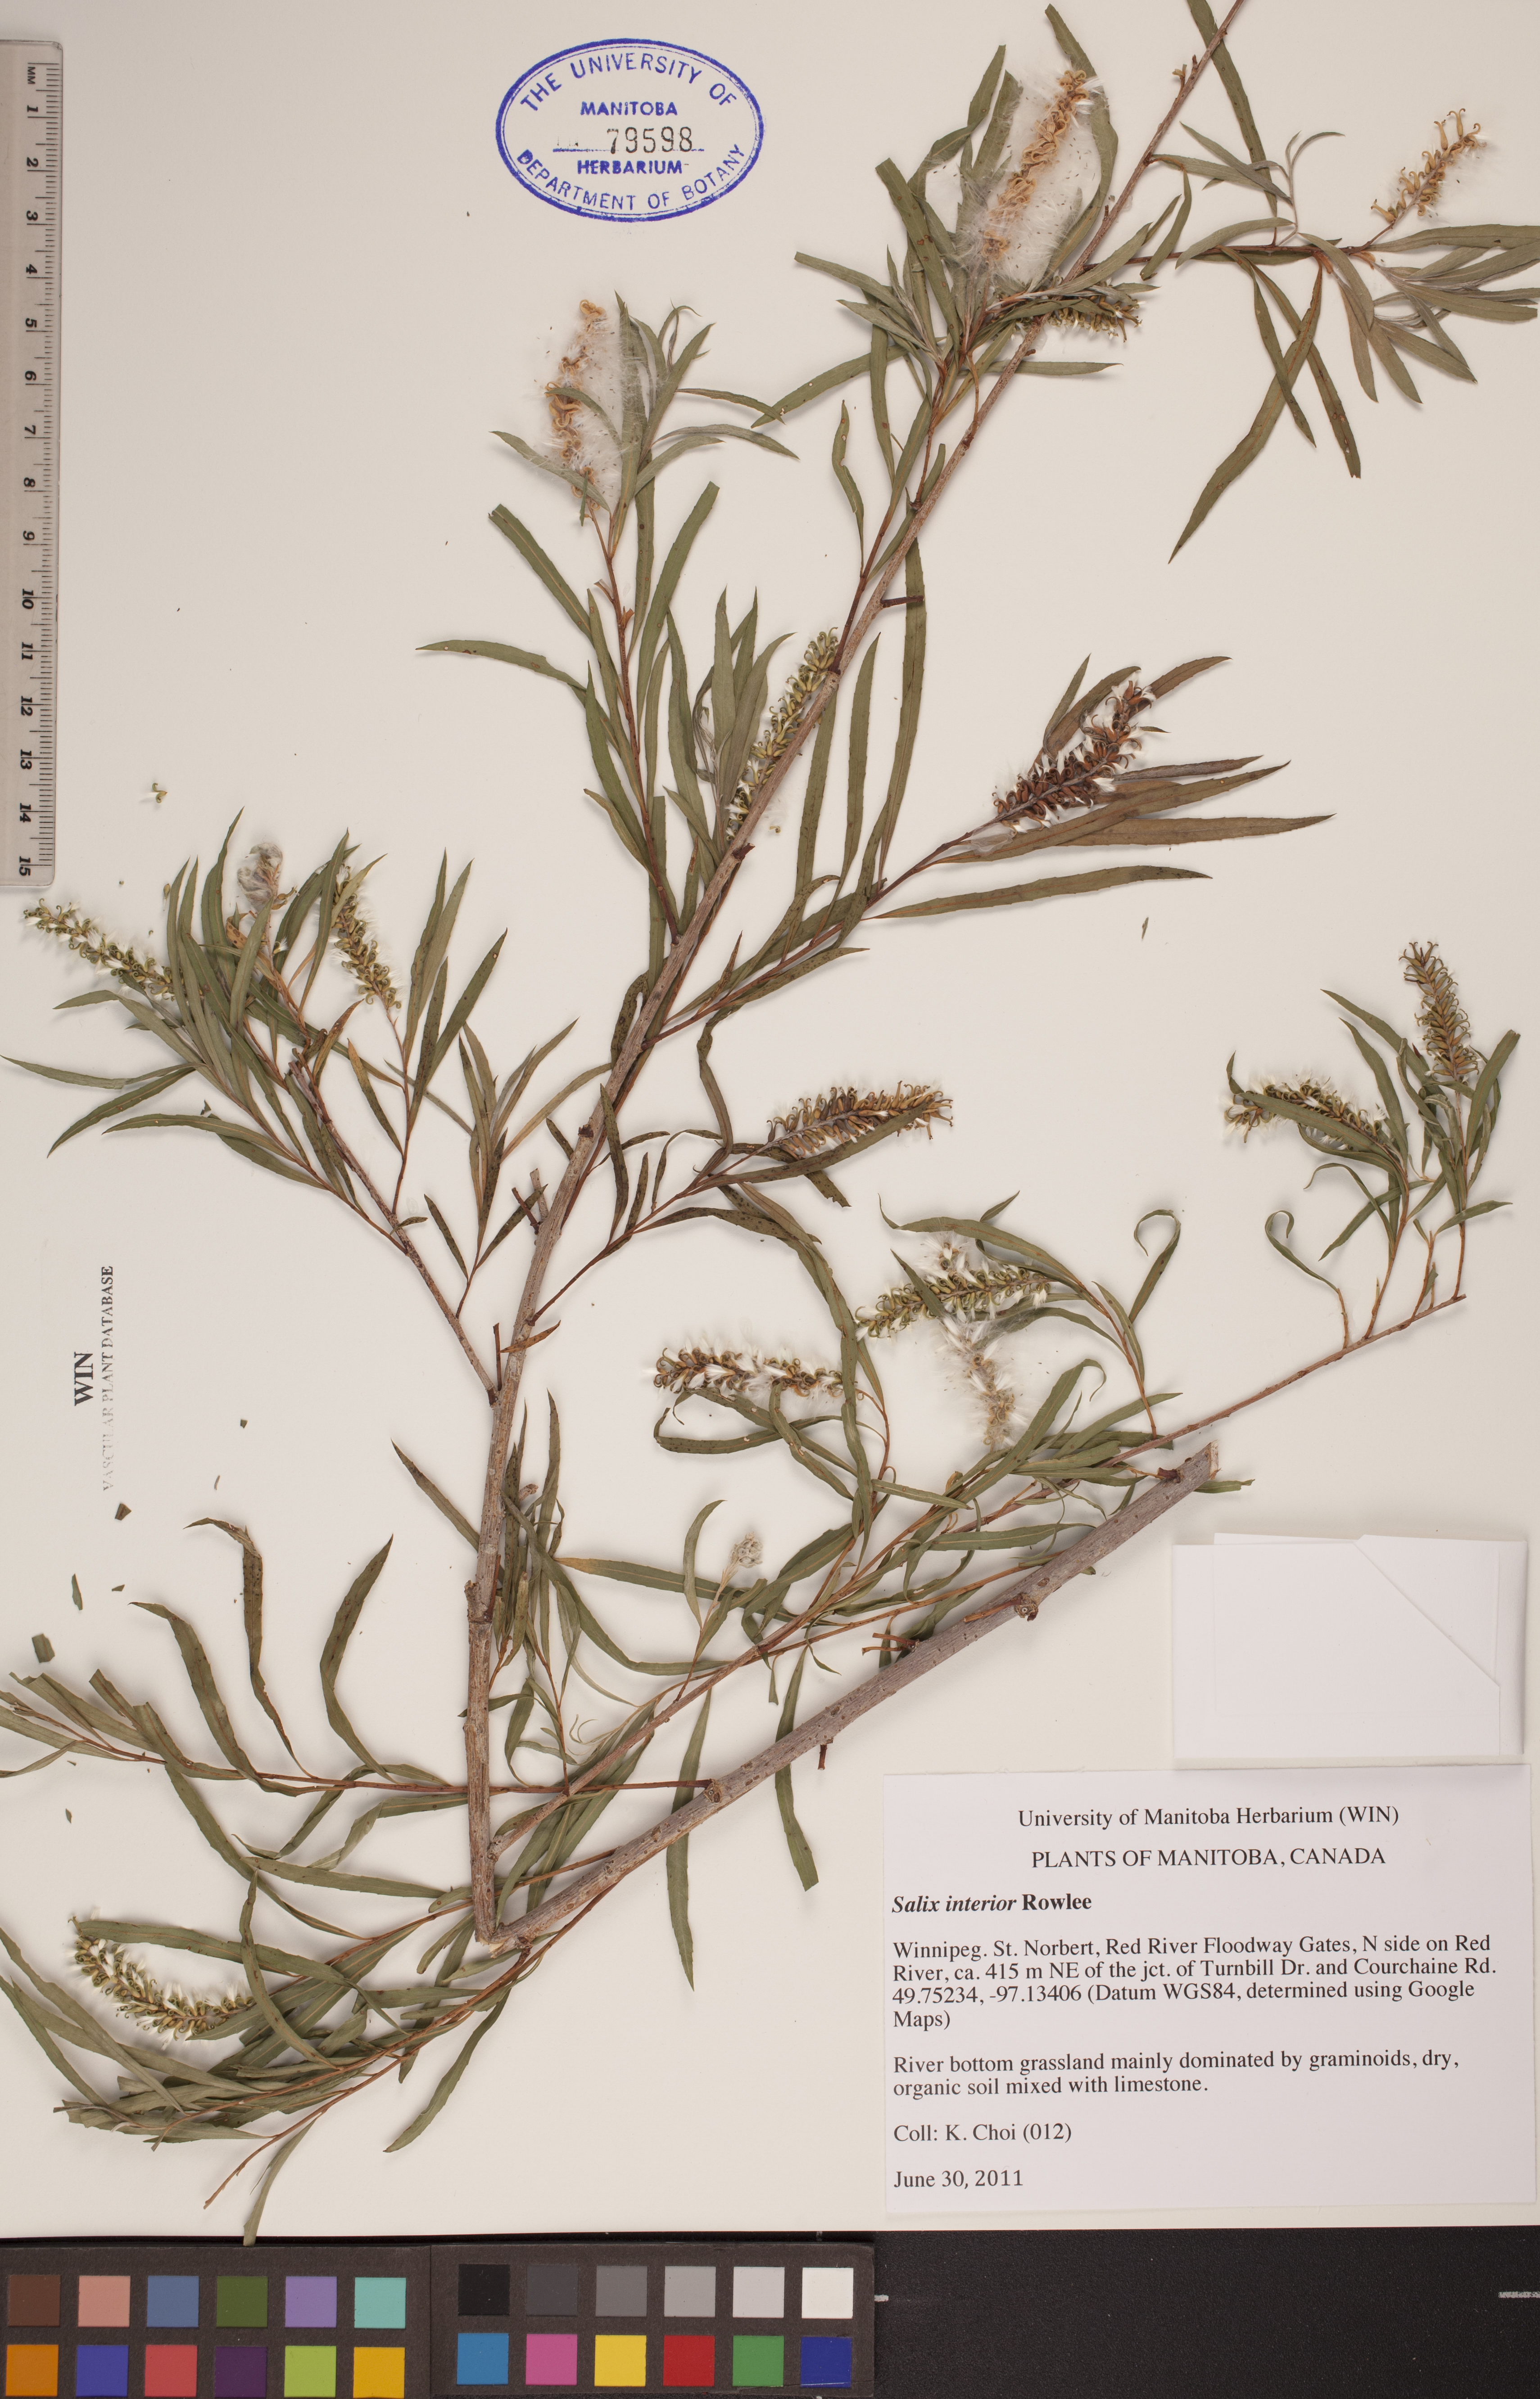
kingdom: Plantae
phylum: Tracheophyta
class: Magnoliopsida
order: Malpighiales
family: Salicaceae
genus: Salix
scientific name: Salix interior
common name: Sandbar willow
